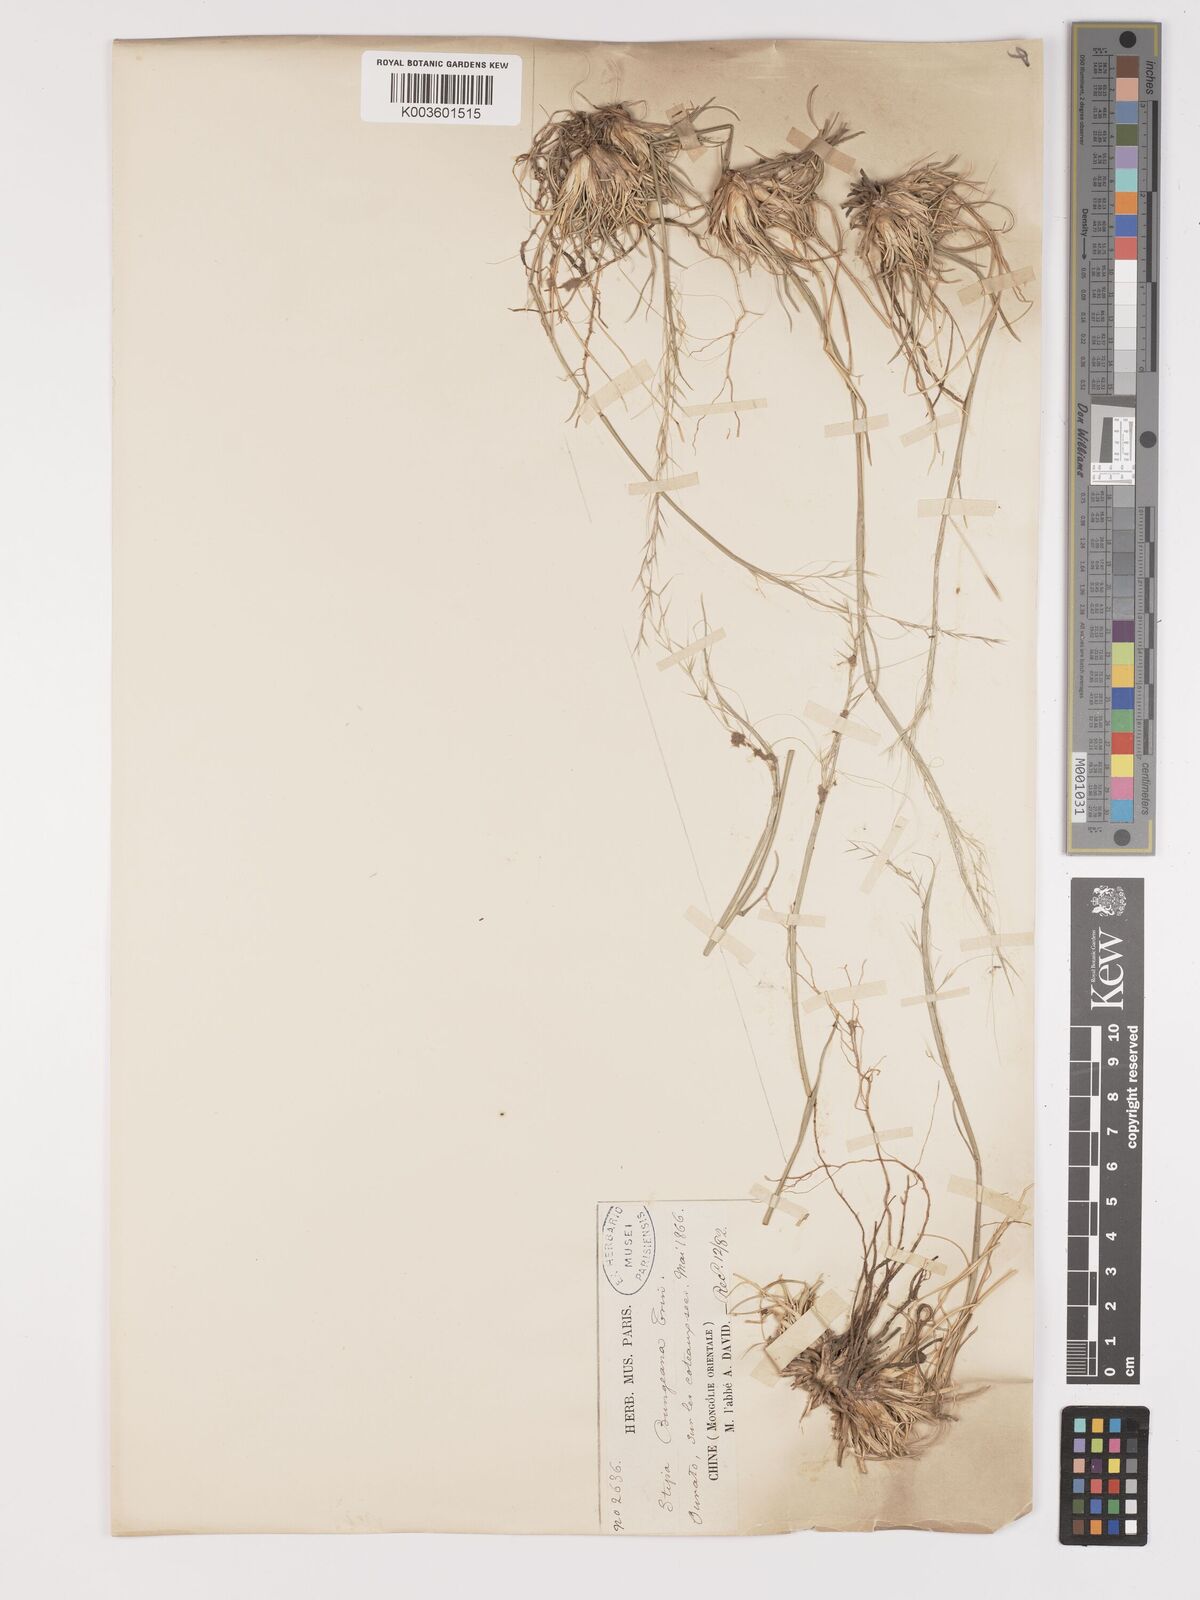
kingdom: Plantae
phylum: Tracheophyta
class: Liliopsida
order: Poales
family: Poaceae
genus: Stipa
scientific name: Stipa
